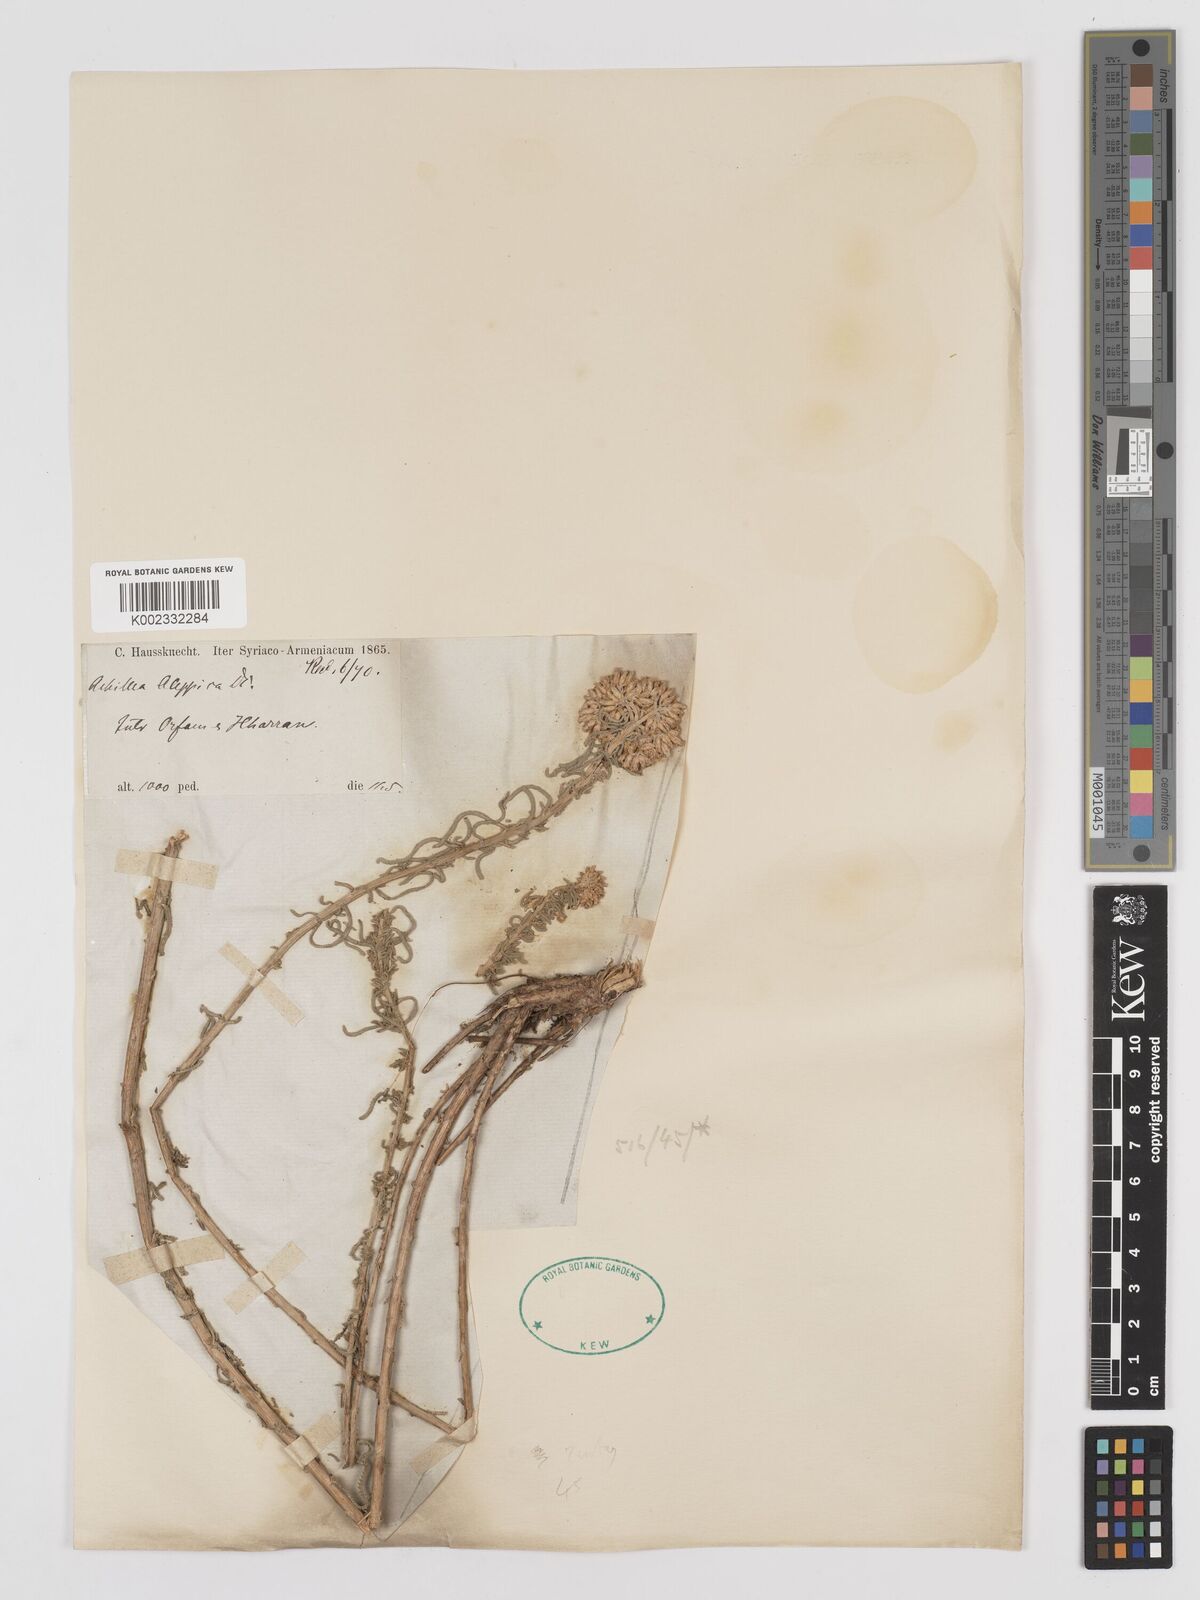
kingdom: Plantae
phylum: Tracheophyta
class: Magnoliopsida
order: Asterales
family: Asteraceae
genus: Achillea
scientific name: Achillea aleppica
